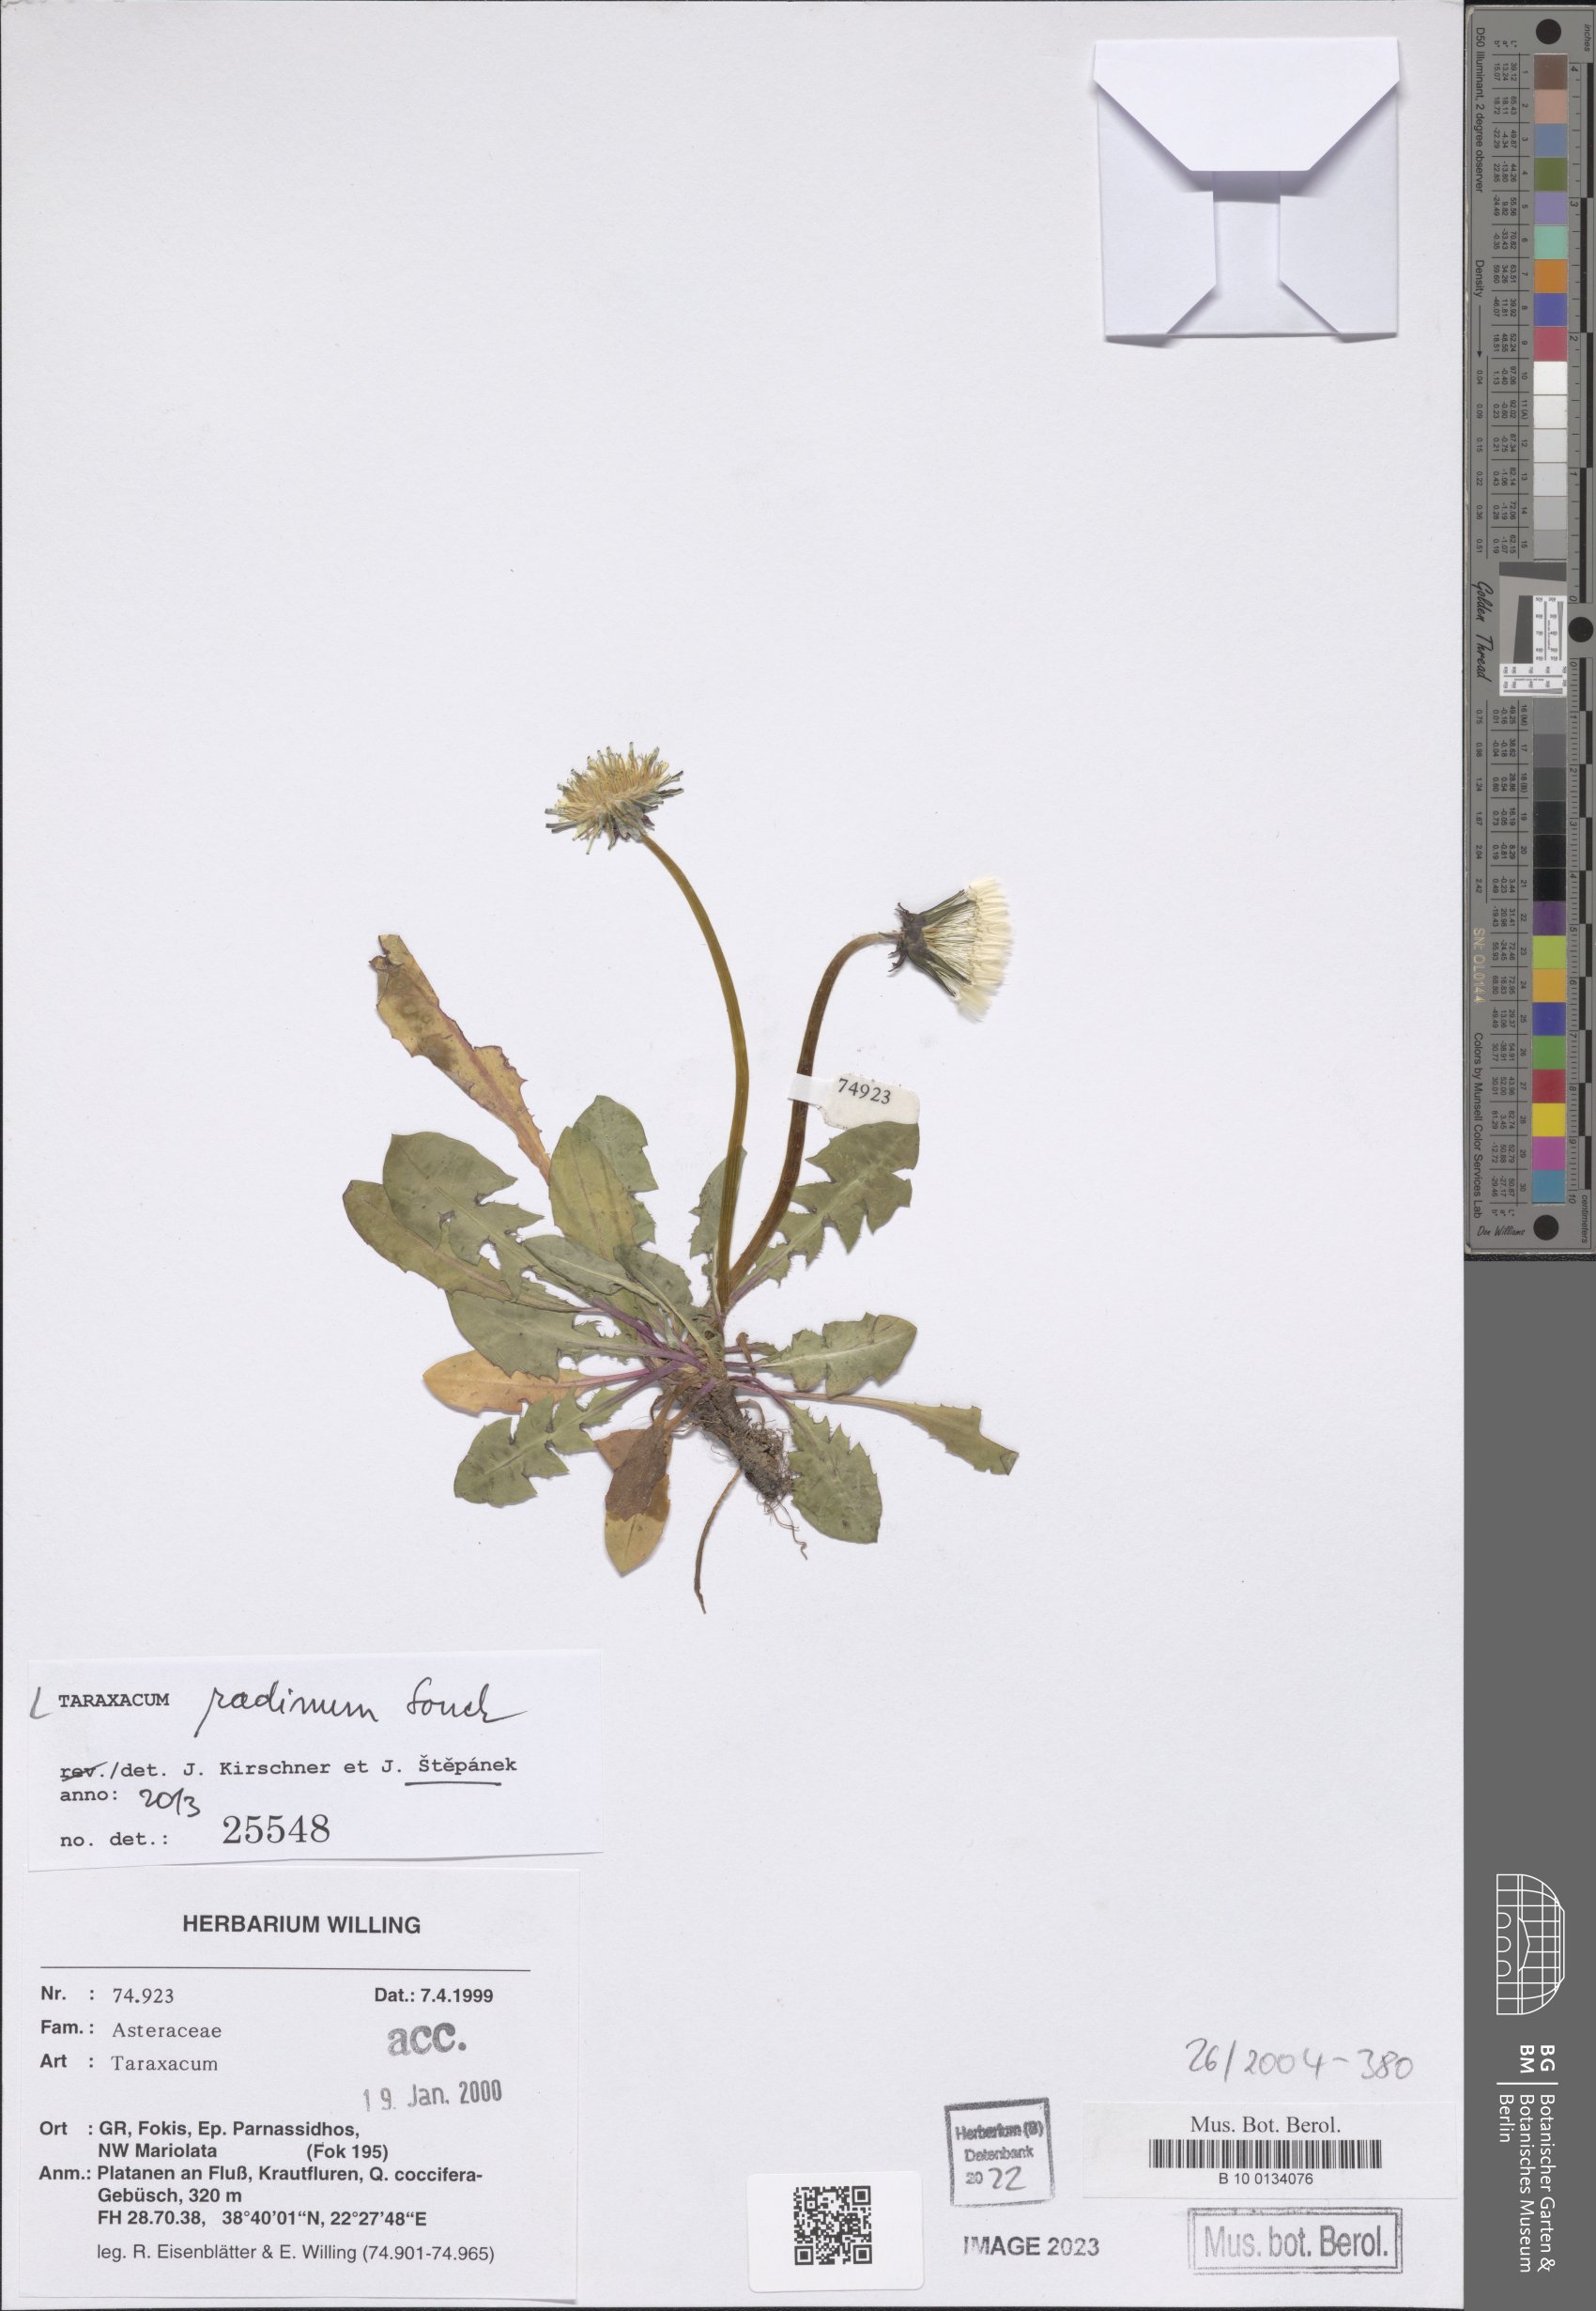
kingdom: Plantae
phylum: Tracheophyta
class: Magnoliopsida
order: Asterales
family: Asteraceae
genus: Taraxacum
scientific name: Taraxacum radinum
